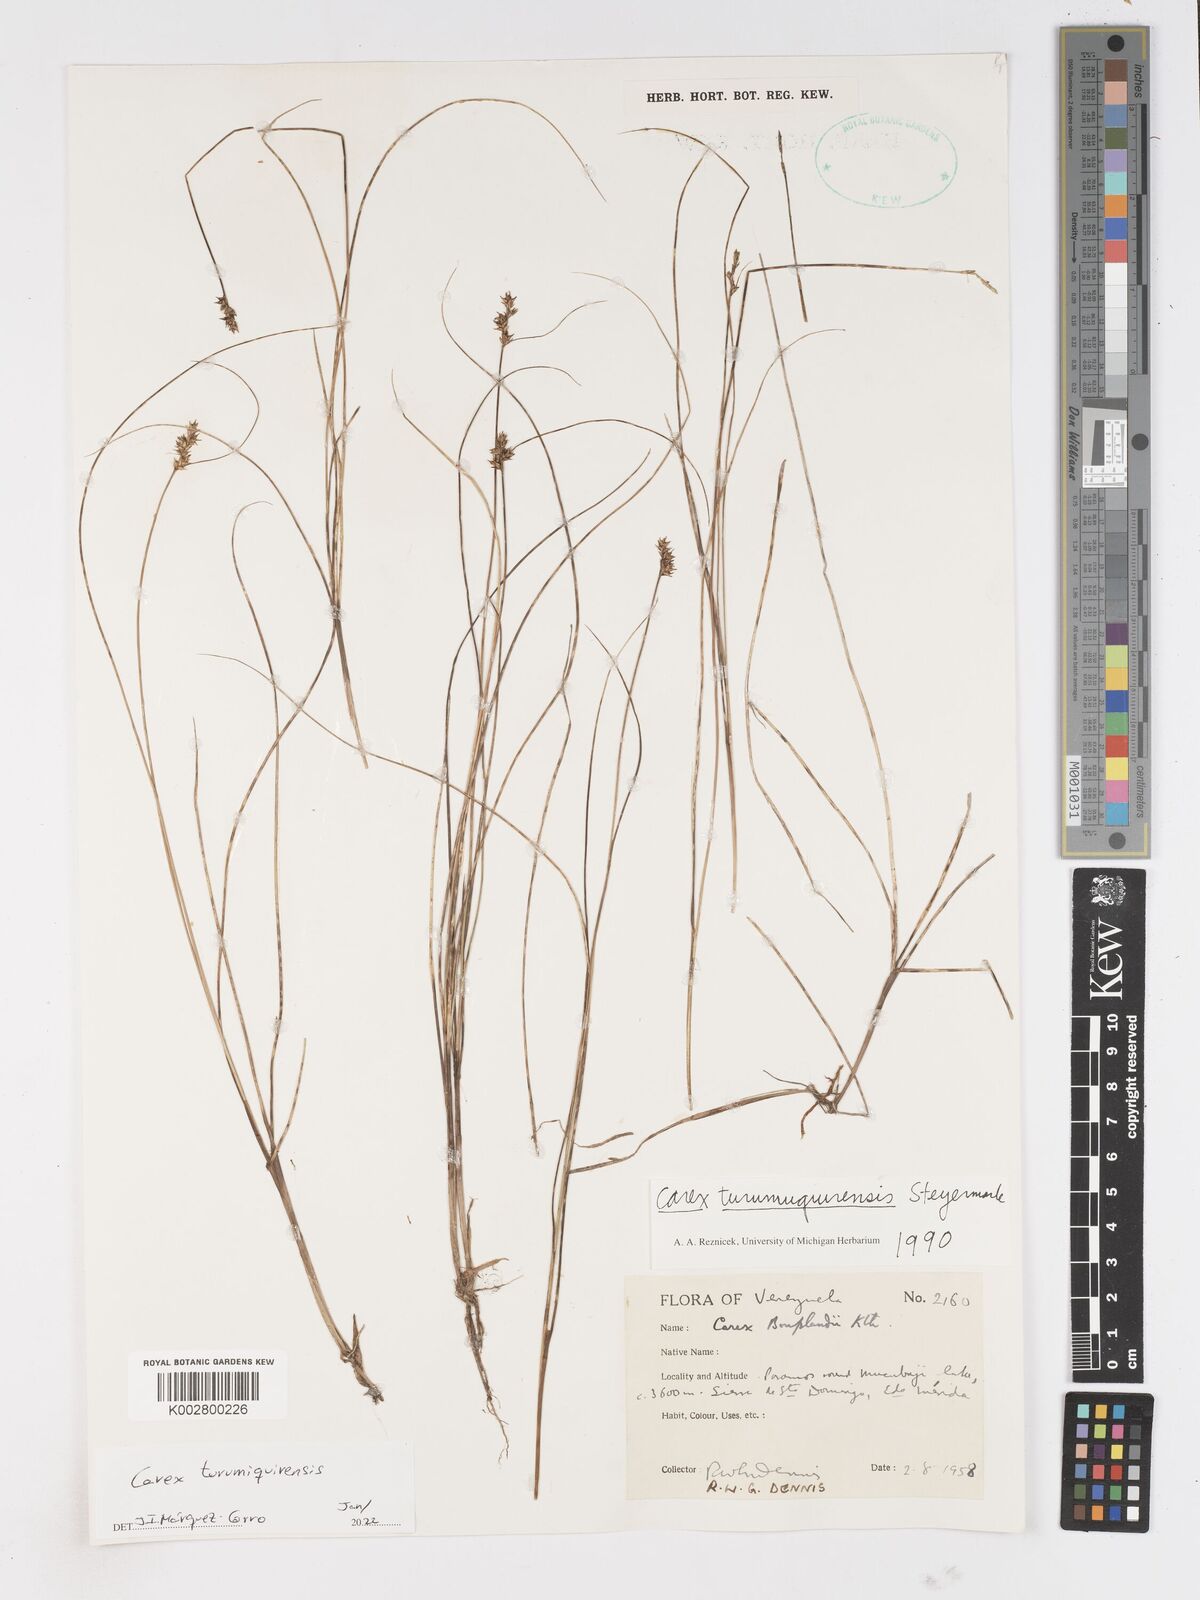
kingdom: Plantae
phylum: Tracheophyta
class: Liliopsida
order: Poales
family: Cyperaceae
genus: Carex
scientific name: Carex turumiquirensis
